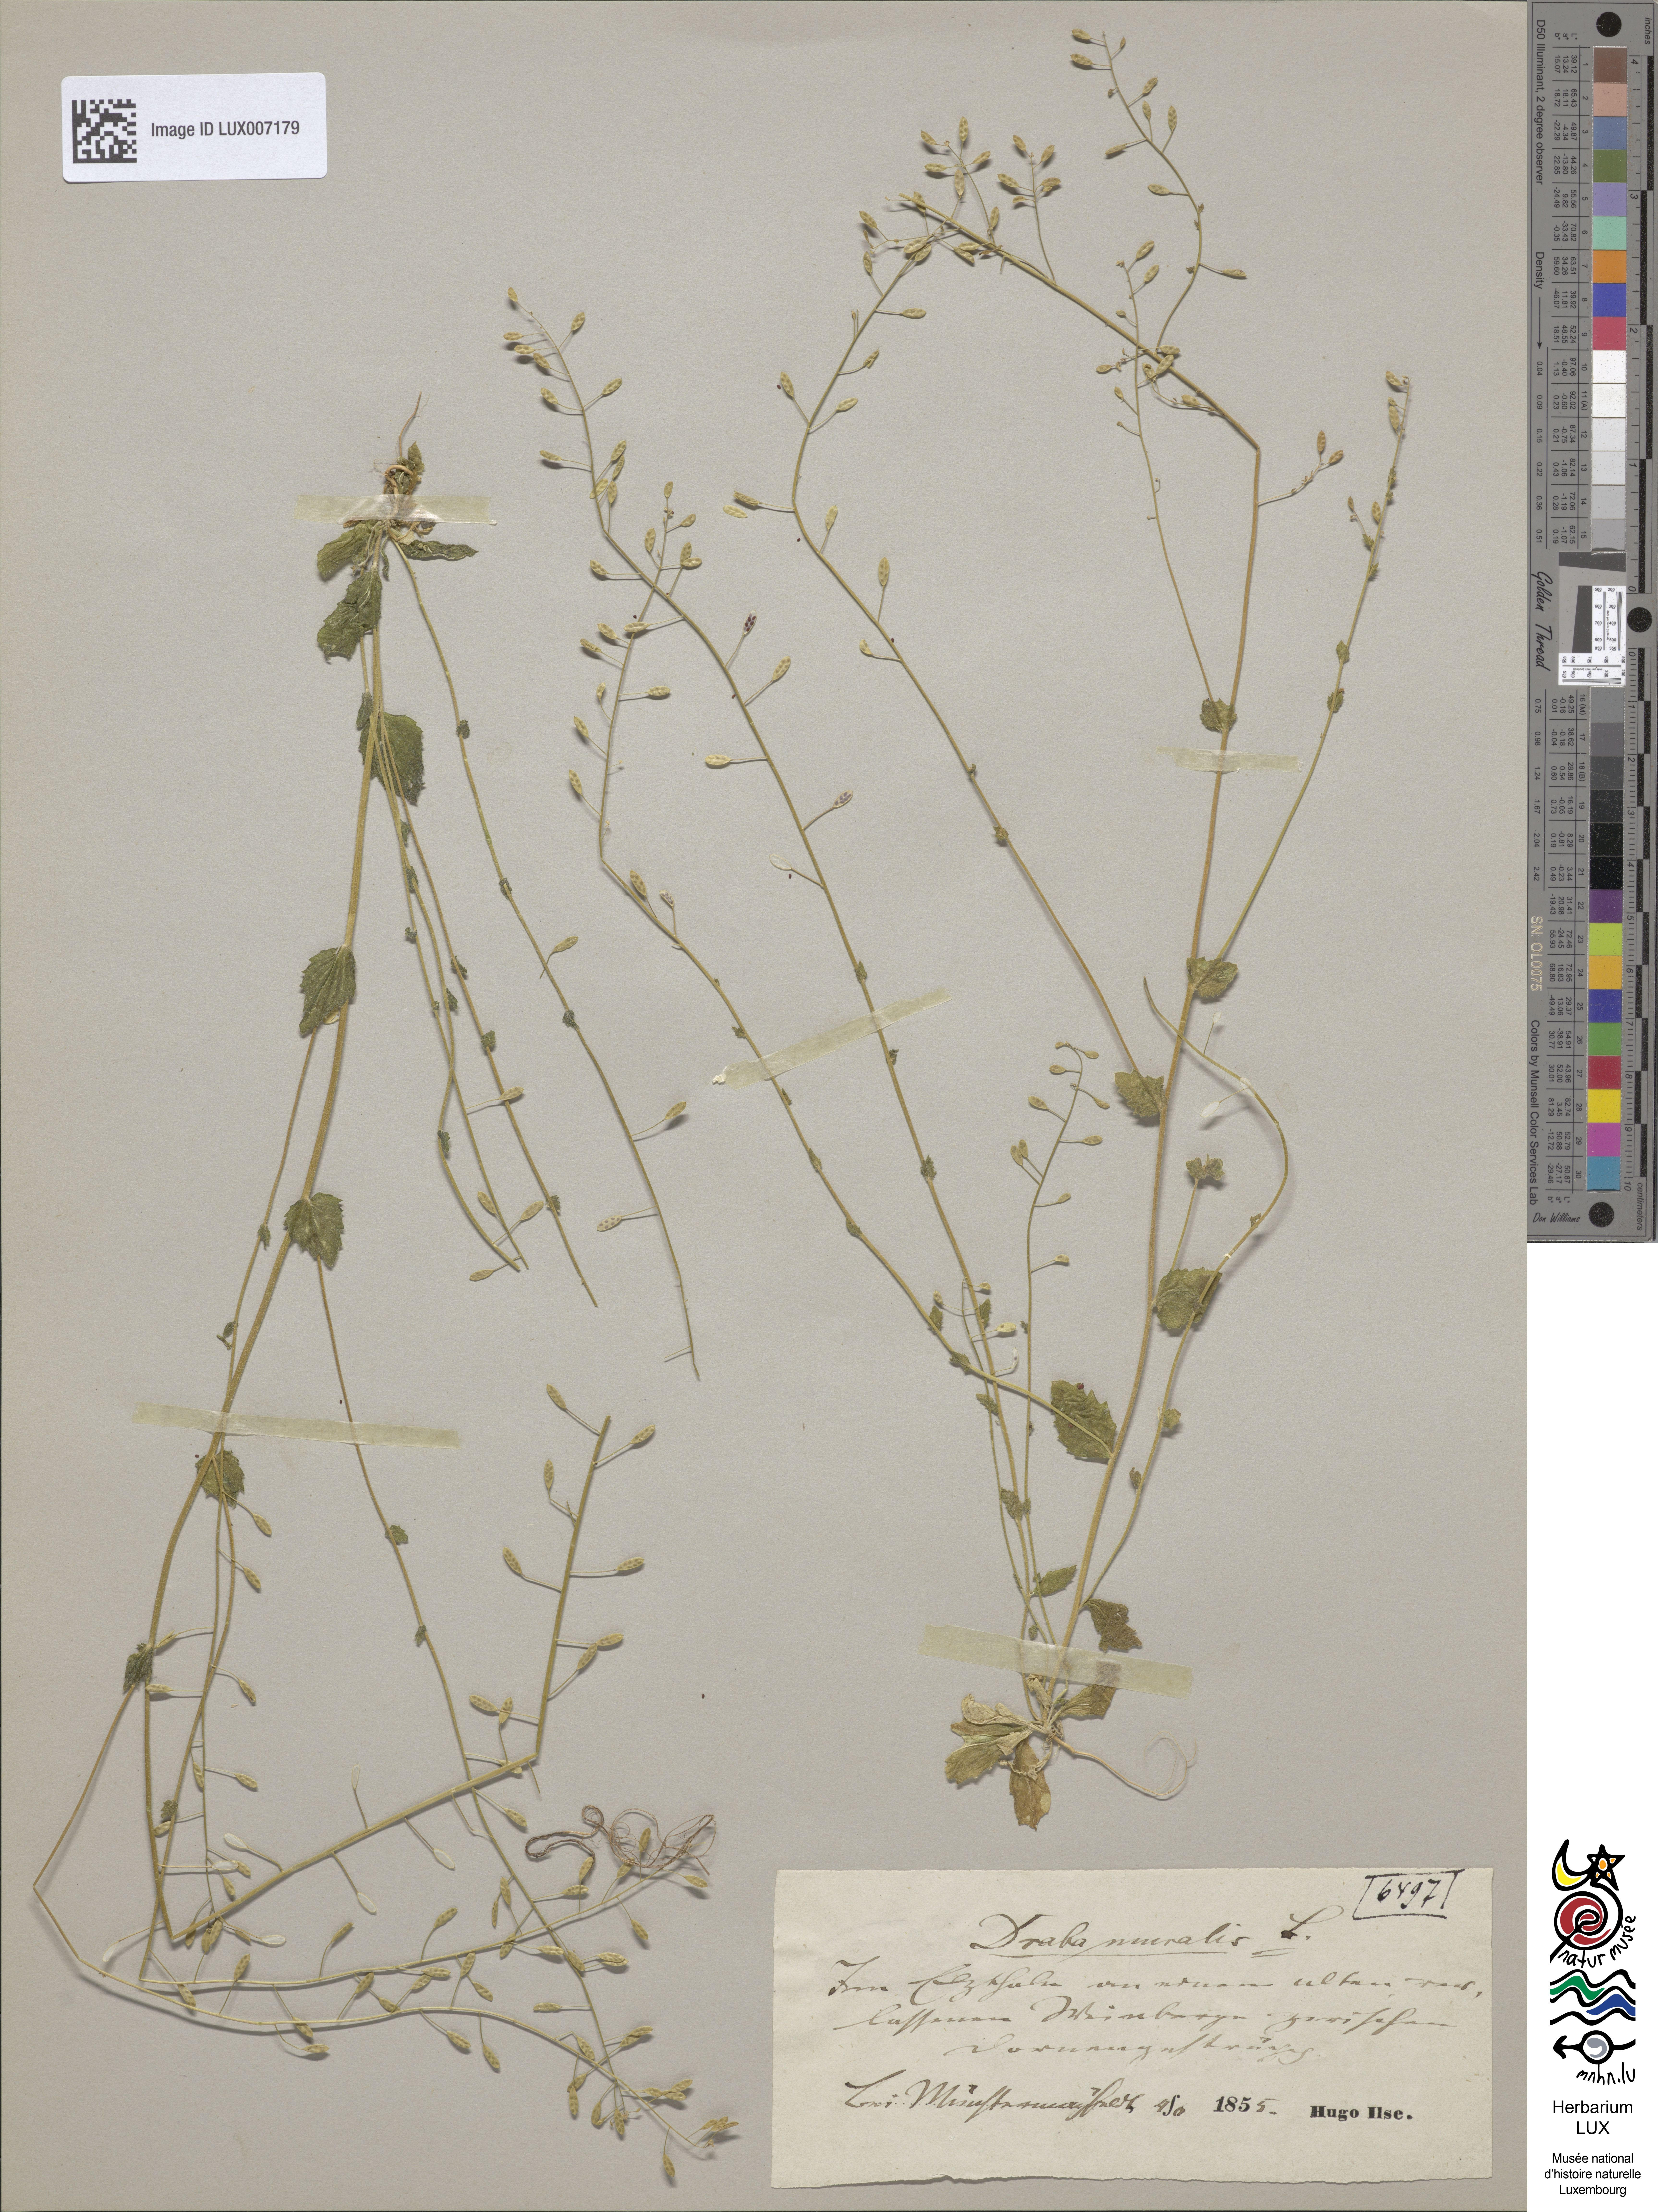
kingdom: Plantae
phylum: Tracheophyta
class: Magnoliopsida
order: Brassicales
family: Brassicaceae
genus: Drabella
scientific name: Drabella muralis
